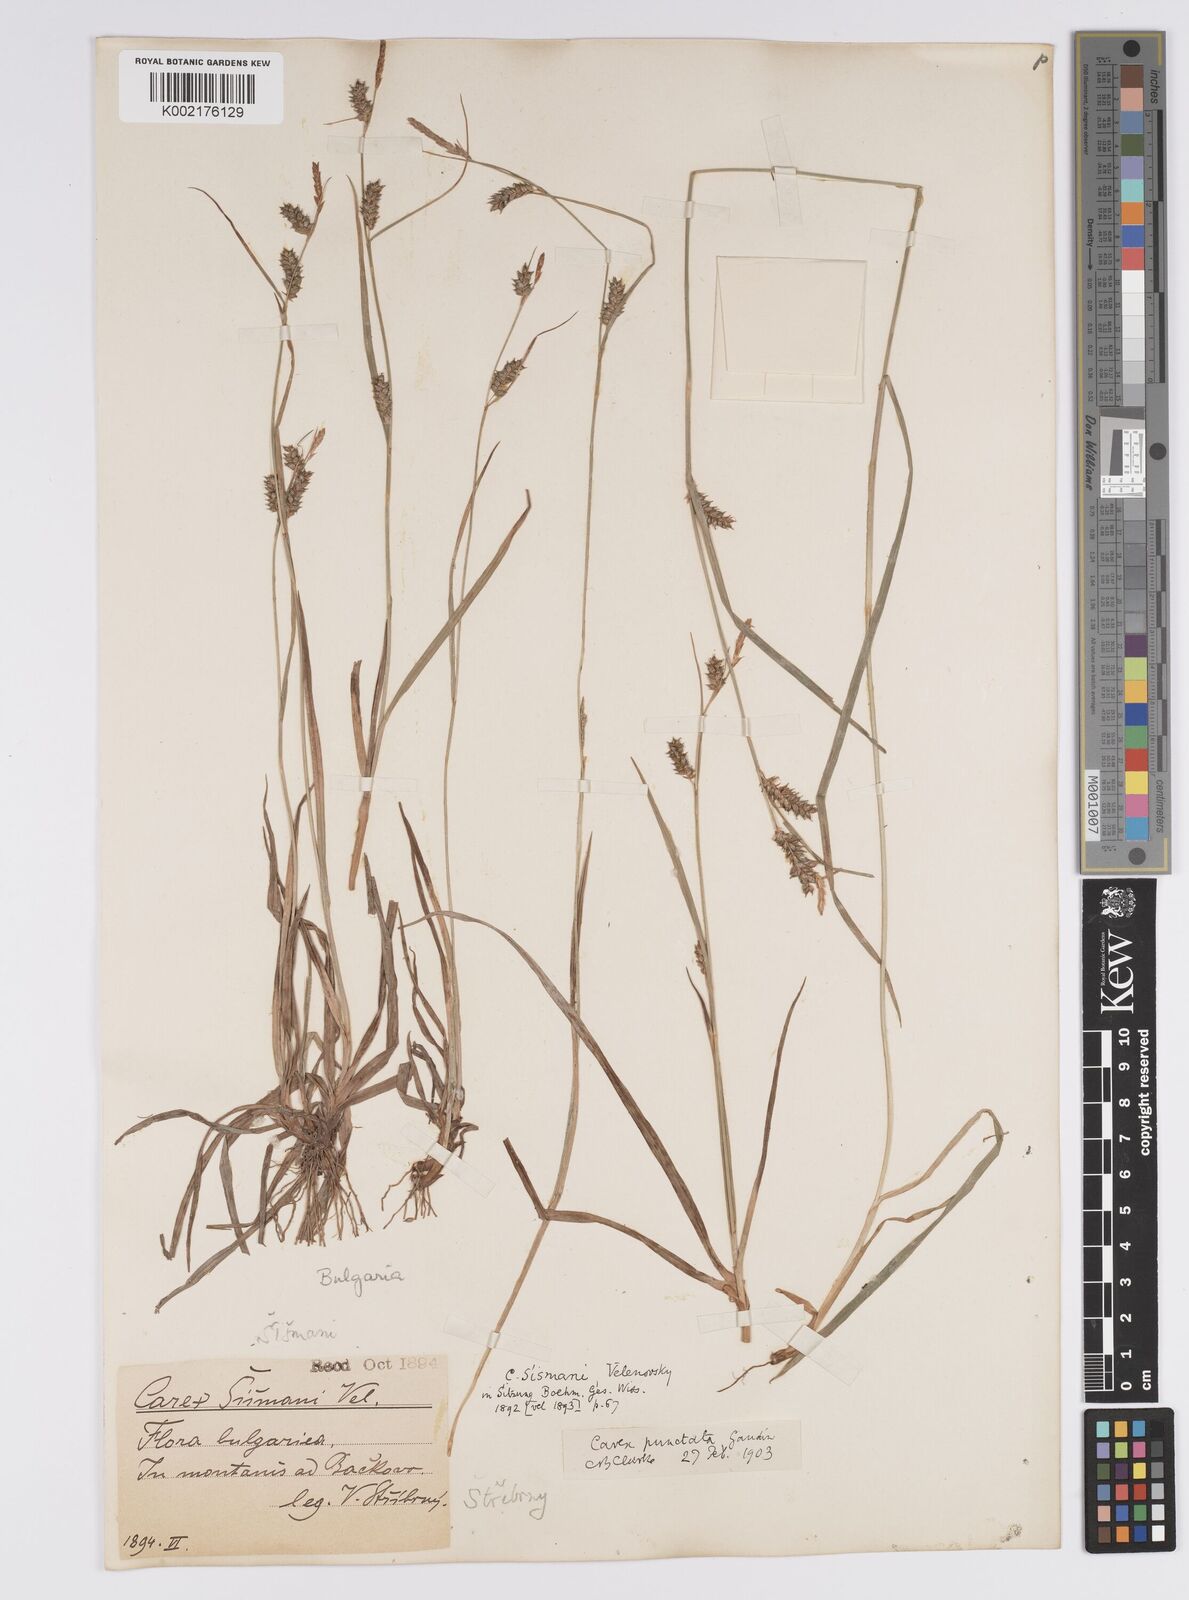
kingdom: Plantae
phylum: Tracheophyta
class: Liliopsida
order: Poales
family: Cyperaceae
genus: Carex
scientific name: Carex punctata
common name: Dotted sedge
